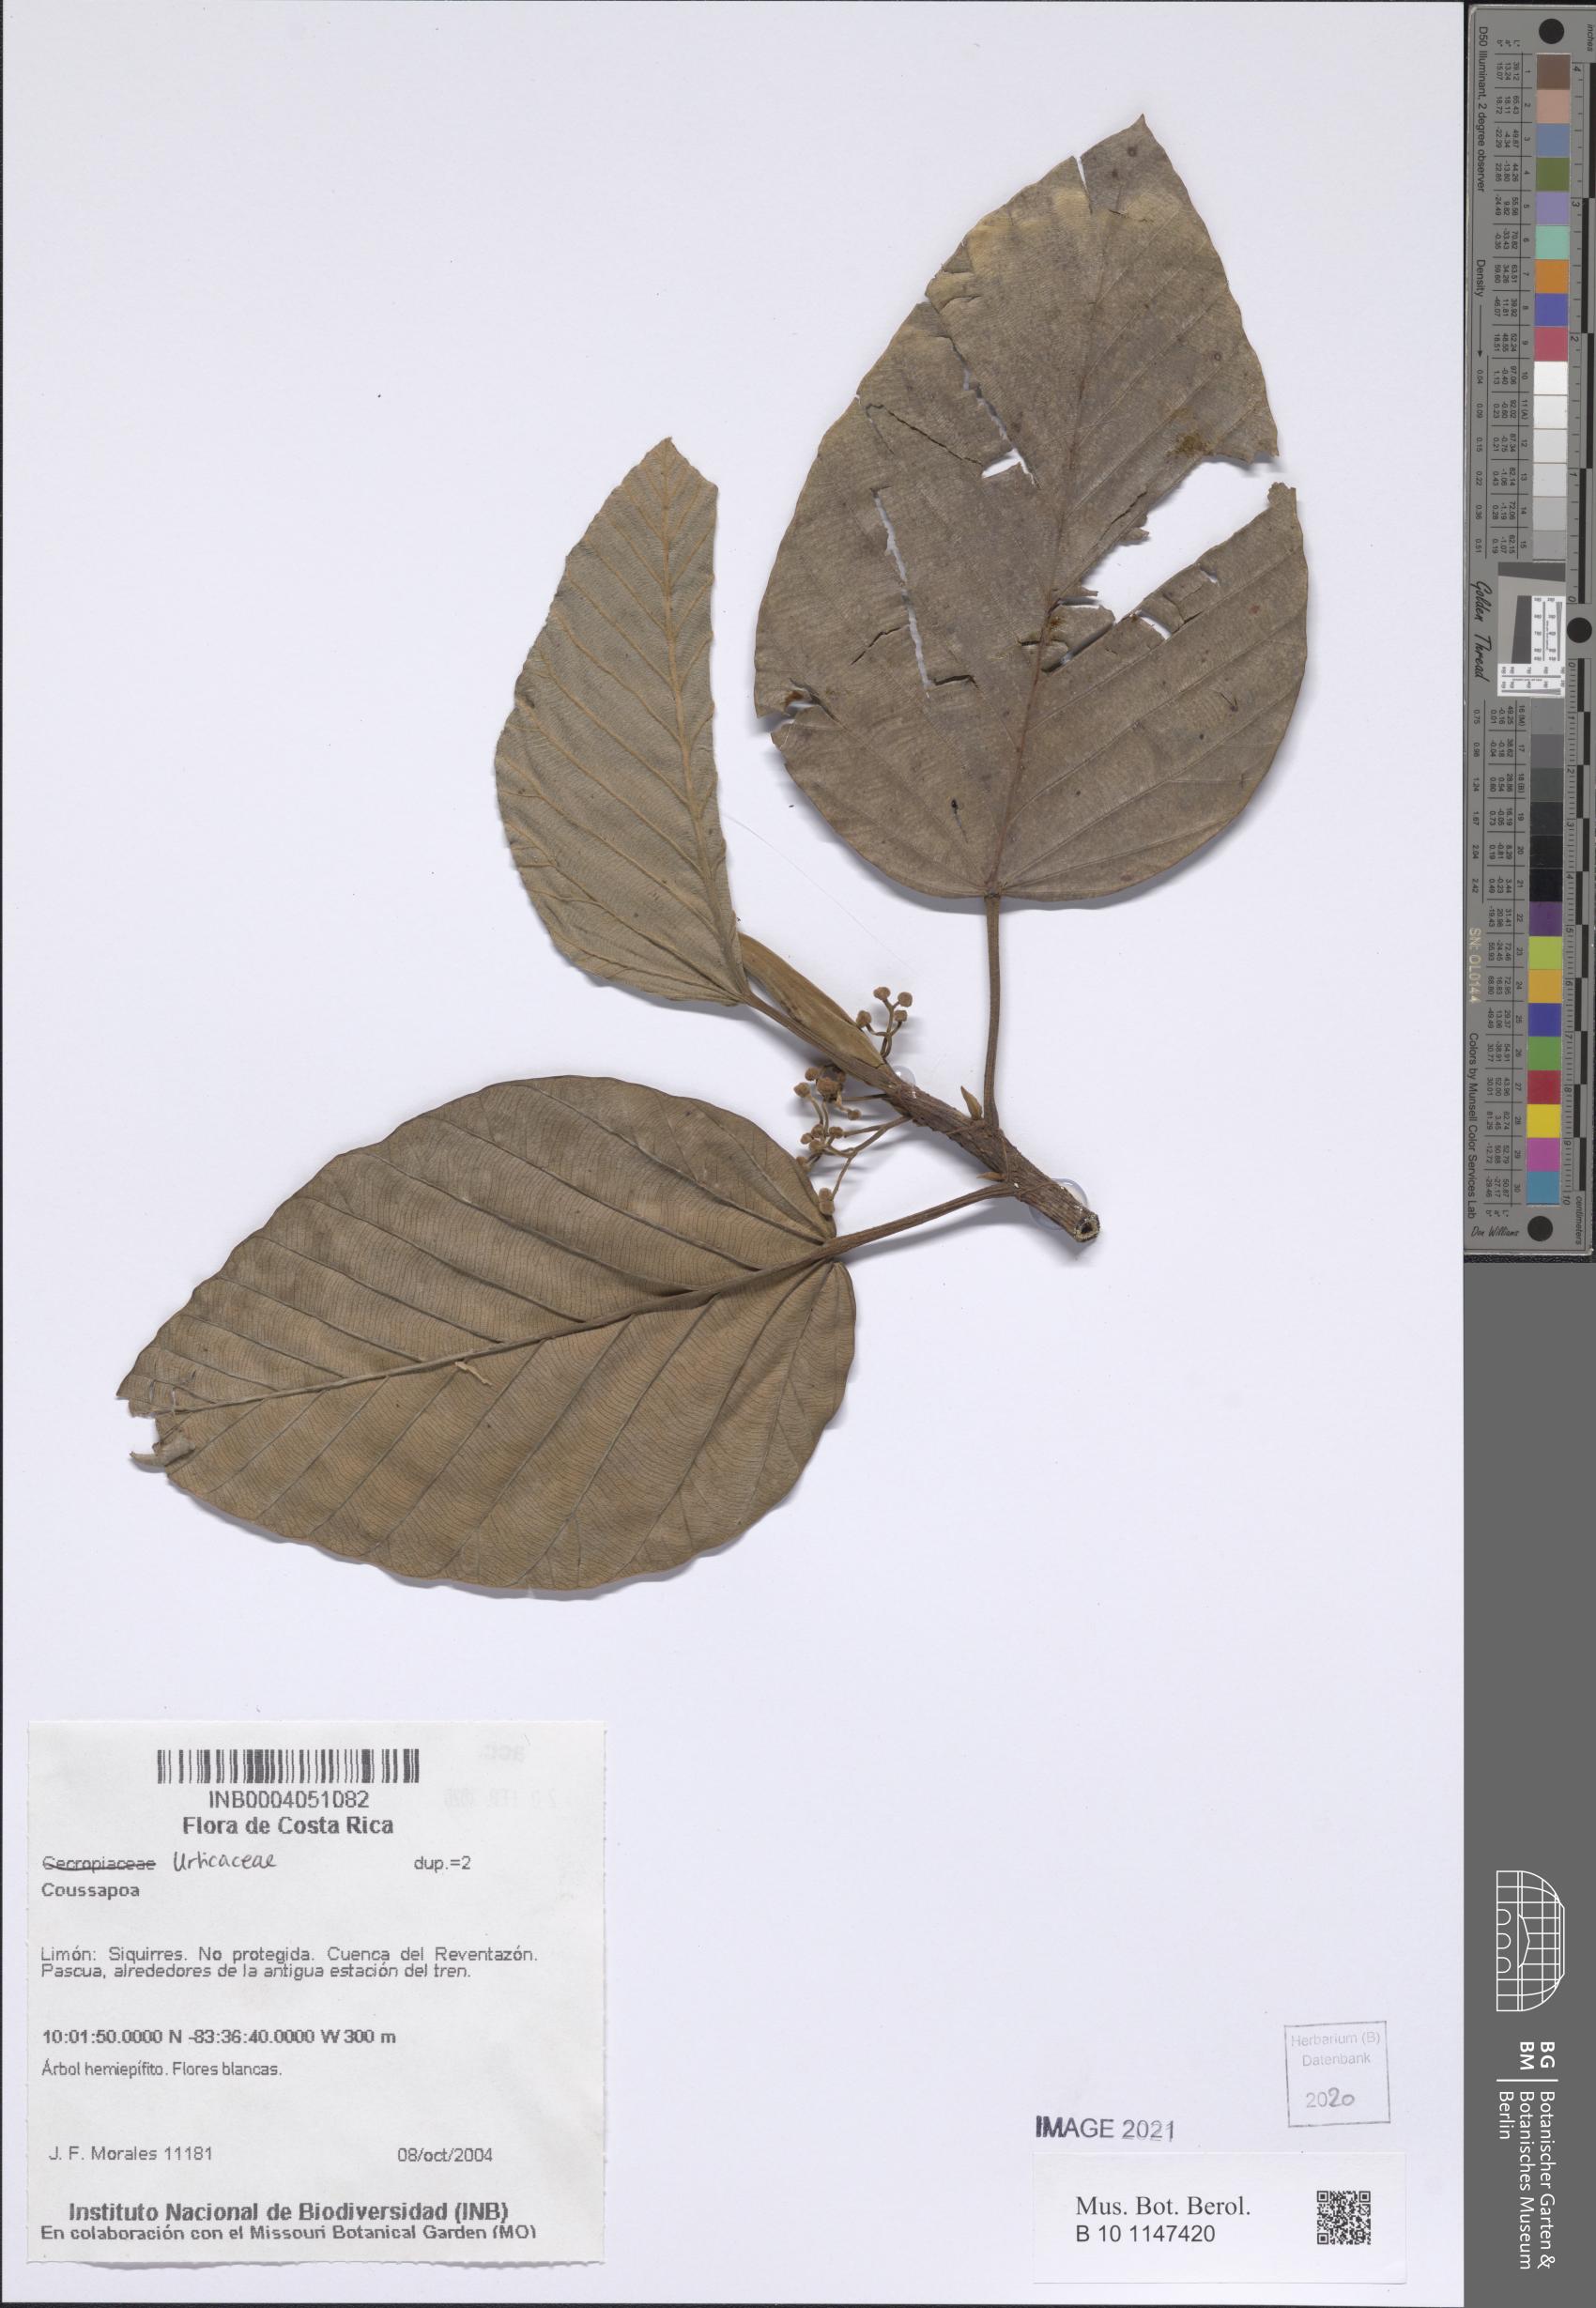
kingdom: Plantae
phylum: Tracheophyta
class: Magnoliopsida
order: Rosales
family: Urticaceae
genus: Coussapoa
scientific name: Coussapoa
